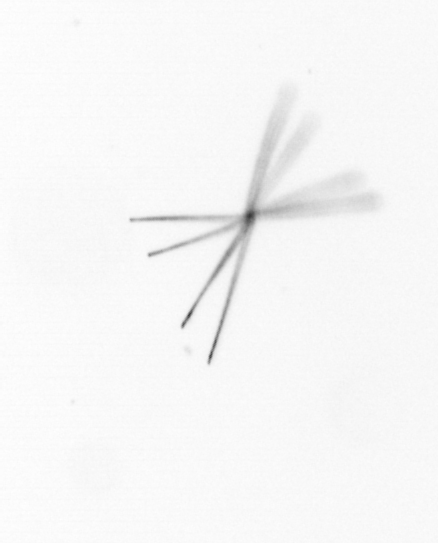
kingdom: Chromista
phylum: Ochrophyta
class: Bacillariophyceae
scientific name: Bacillariophyceae
